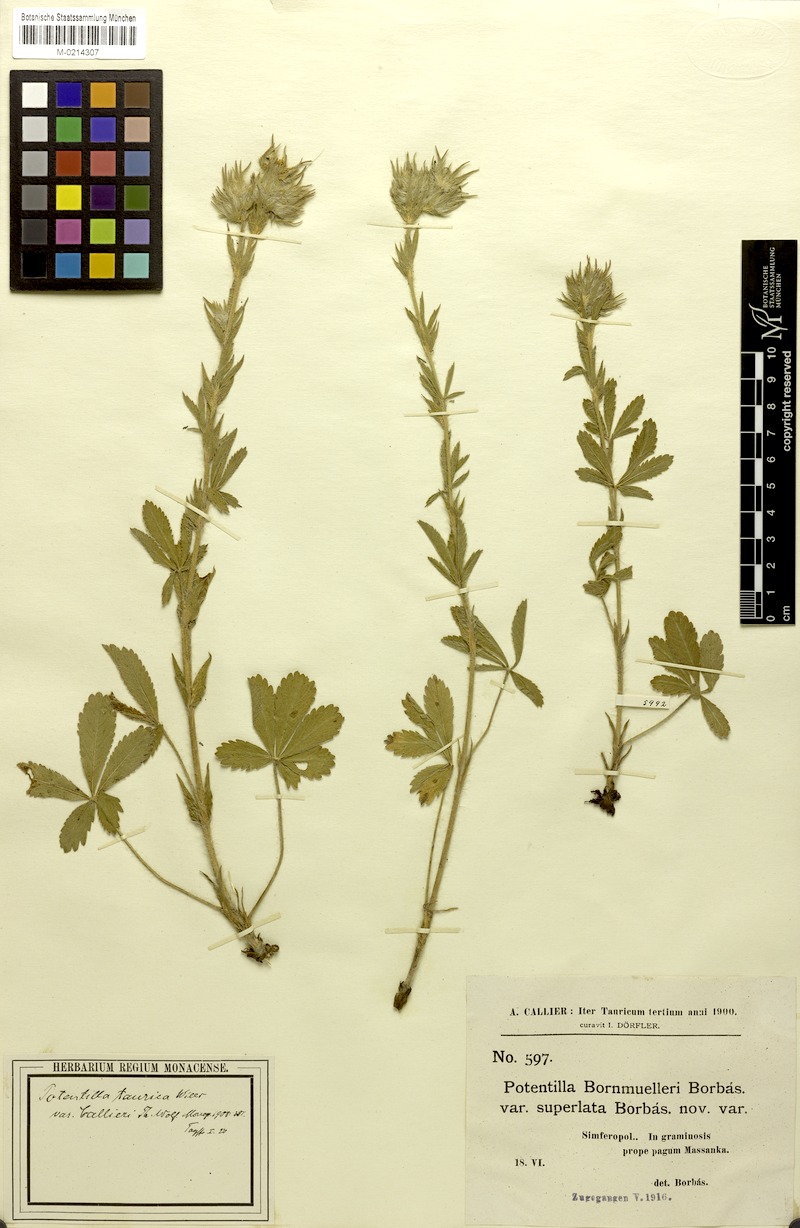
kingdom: Plantae
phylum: Tracheophyta
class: Magnoliopsida
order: Rosales
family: Rosaceae
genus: Potentilla
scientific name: Potentilla astracanica
